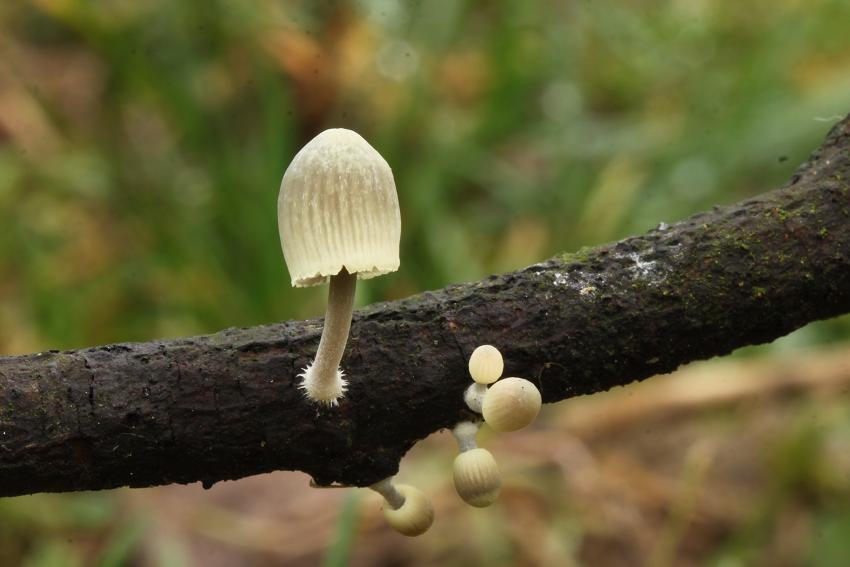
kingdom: Fungi
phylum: Basidiomycota
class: Agaricomycetes
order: Agaricales
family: Mycenaceae
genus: Mycena
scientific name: Mycena arcangeliana
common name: oliven-huesvamp
